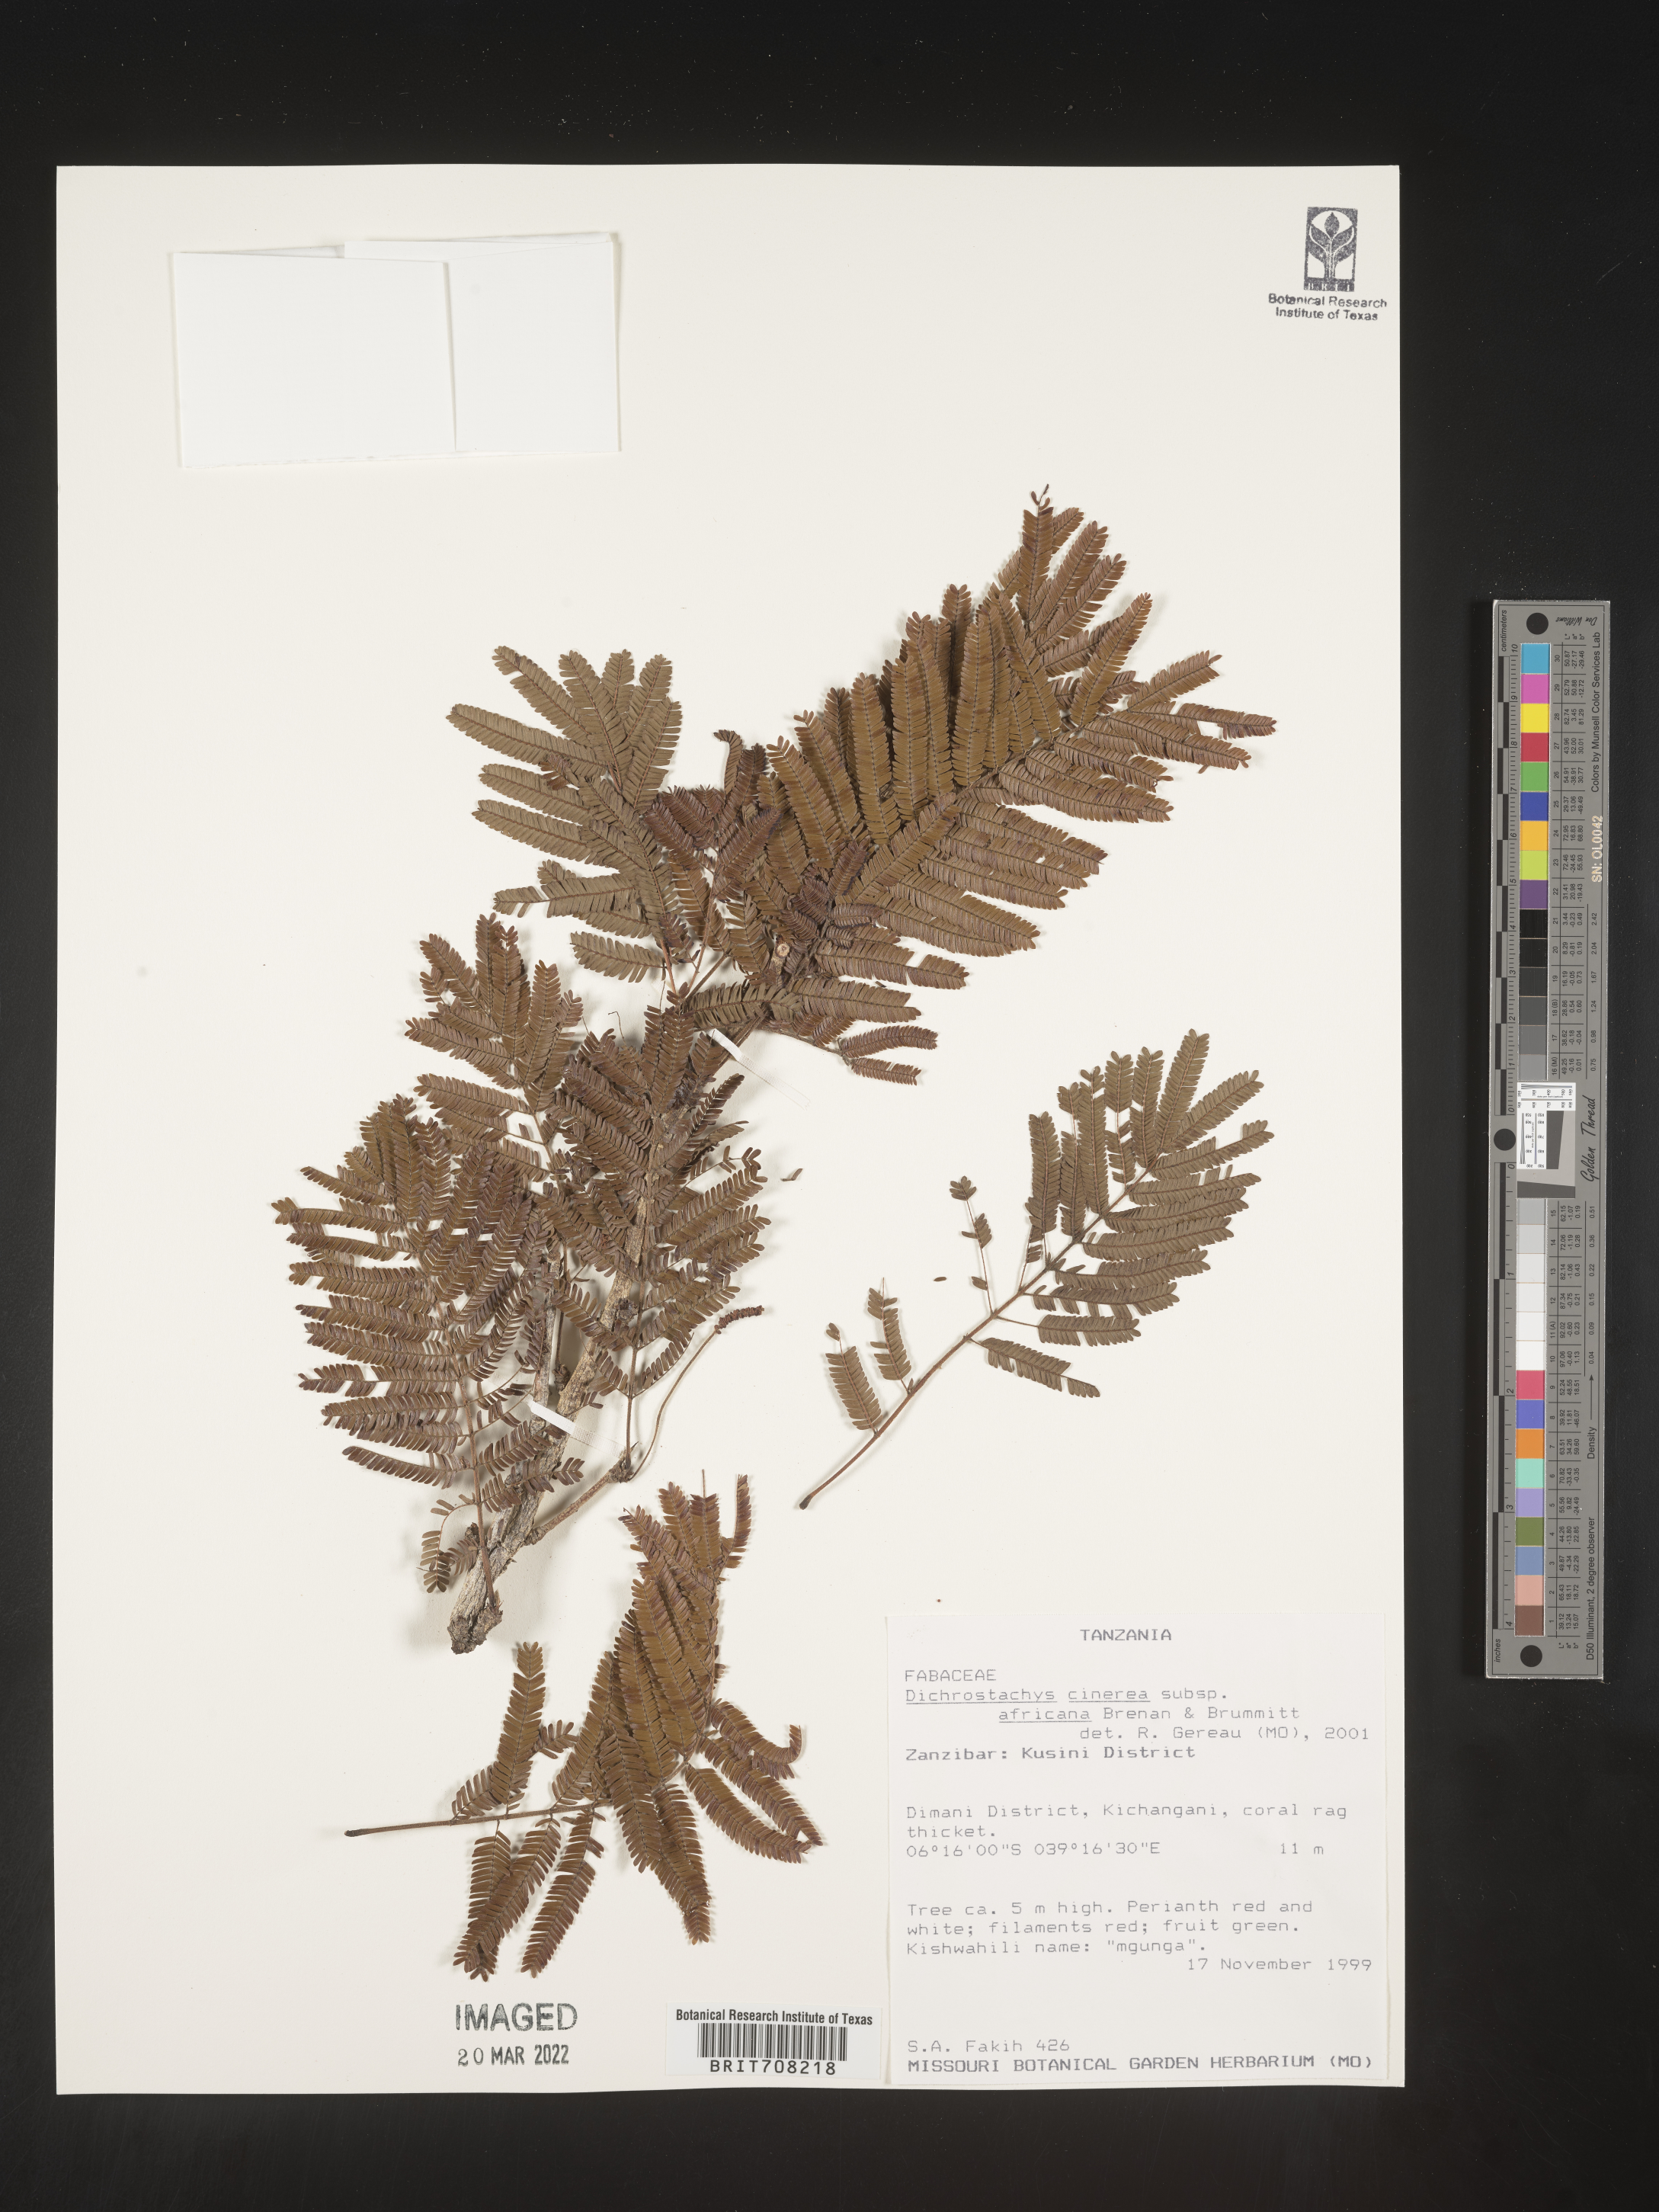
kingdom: Plantae
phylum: Tracheophyta
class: Magnoliopsida
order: Fabales
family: Fabaceae
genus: Dichrostachys
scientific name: Dichrostachys
